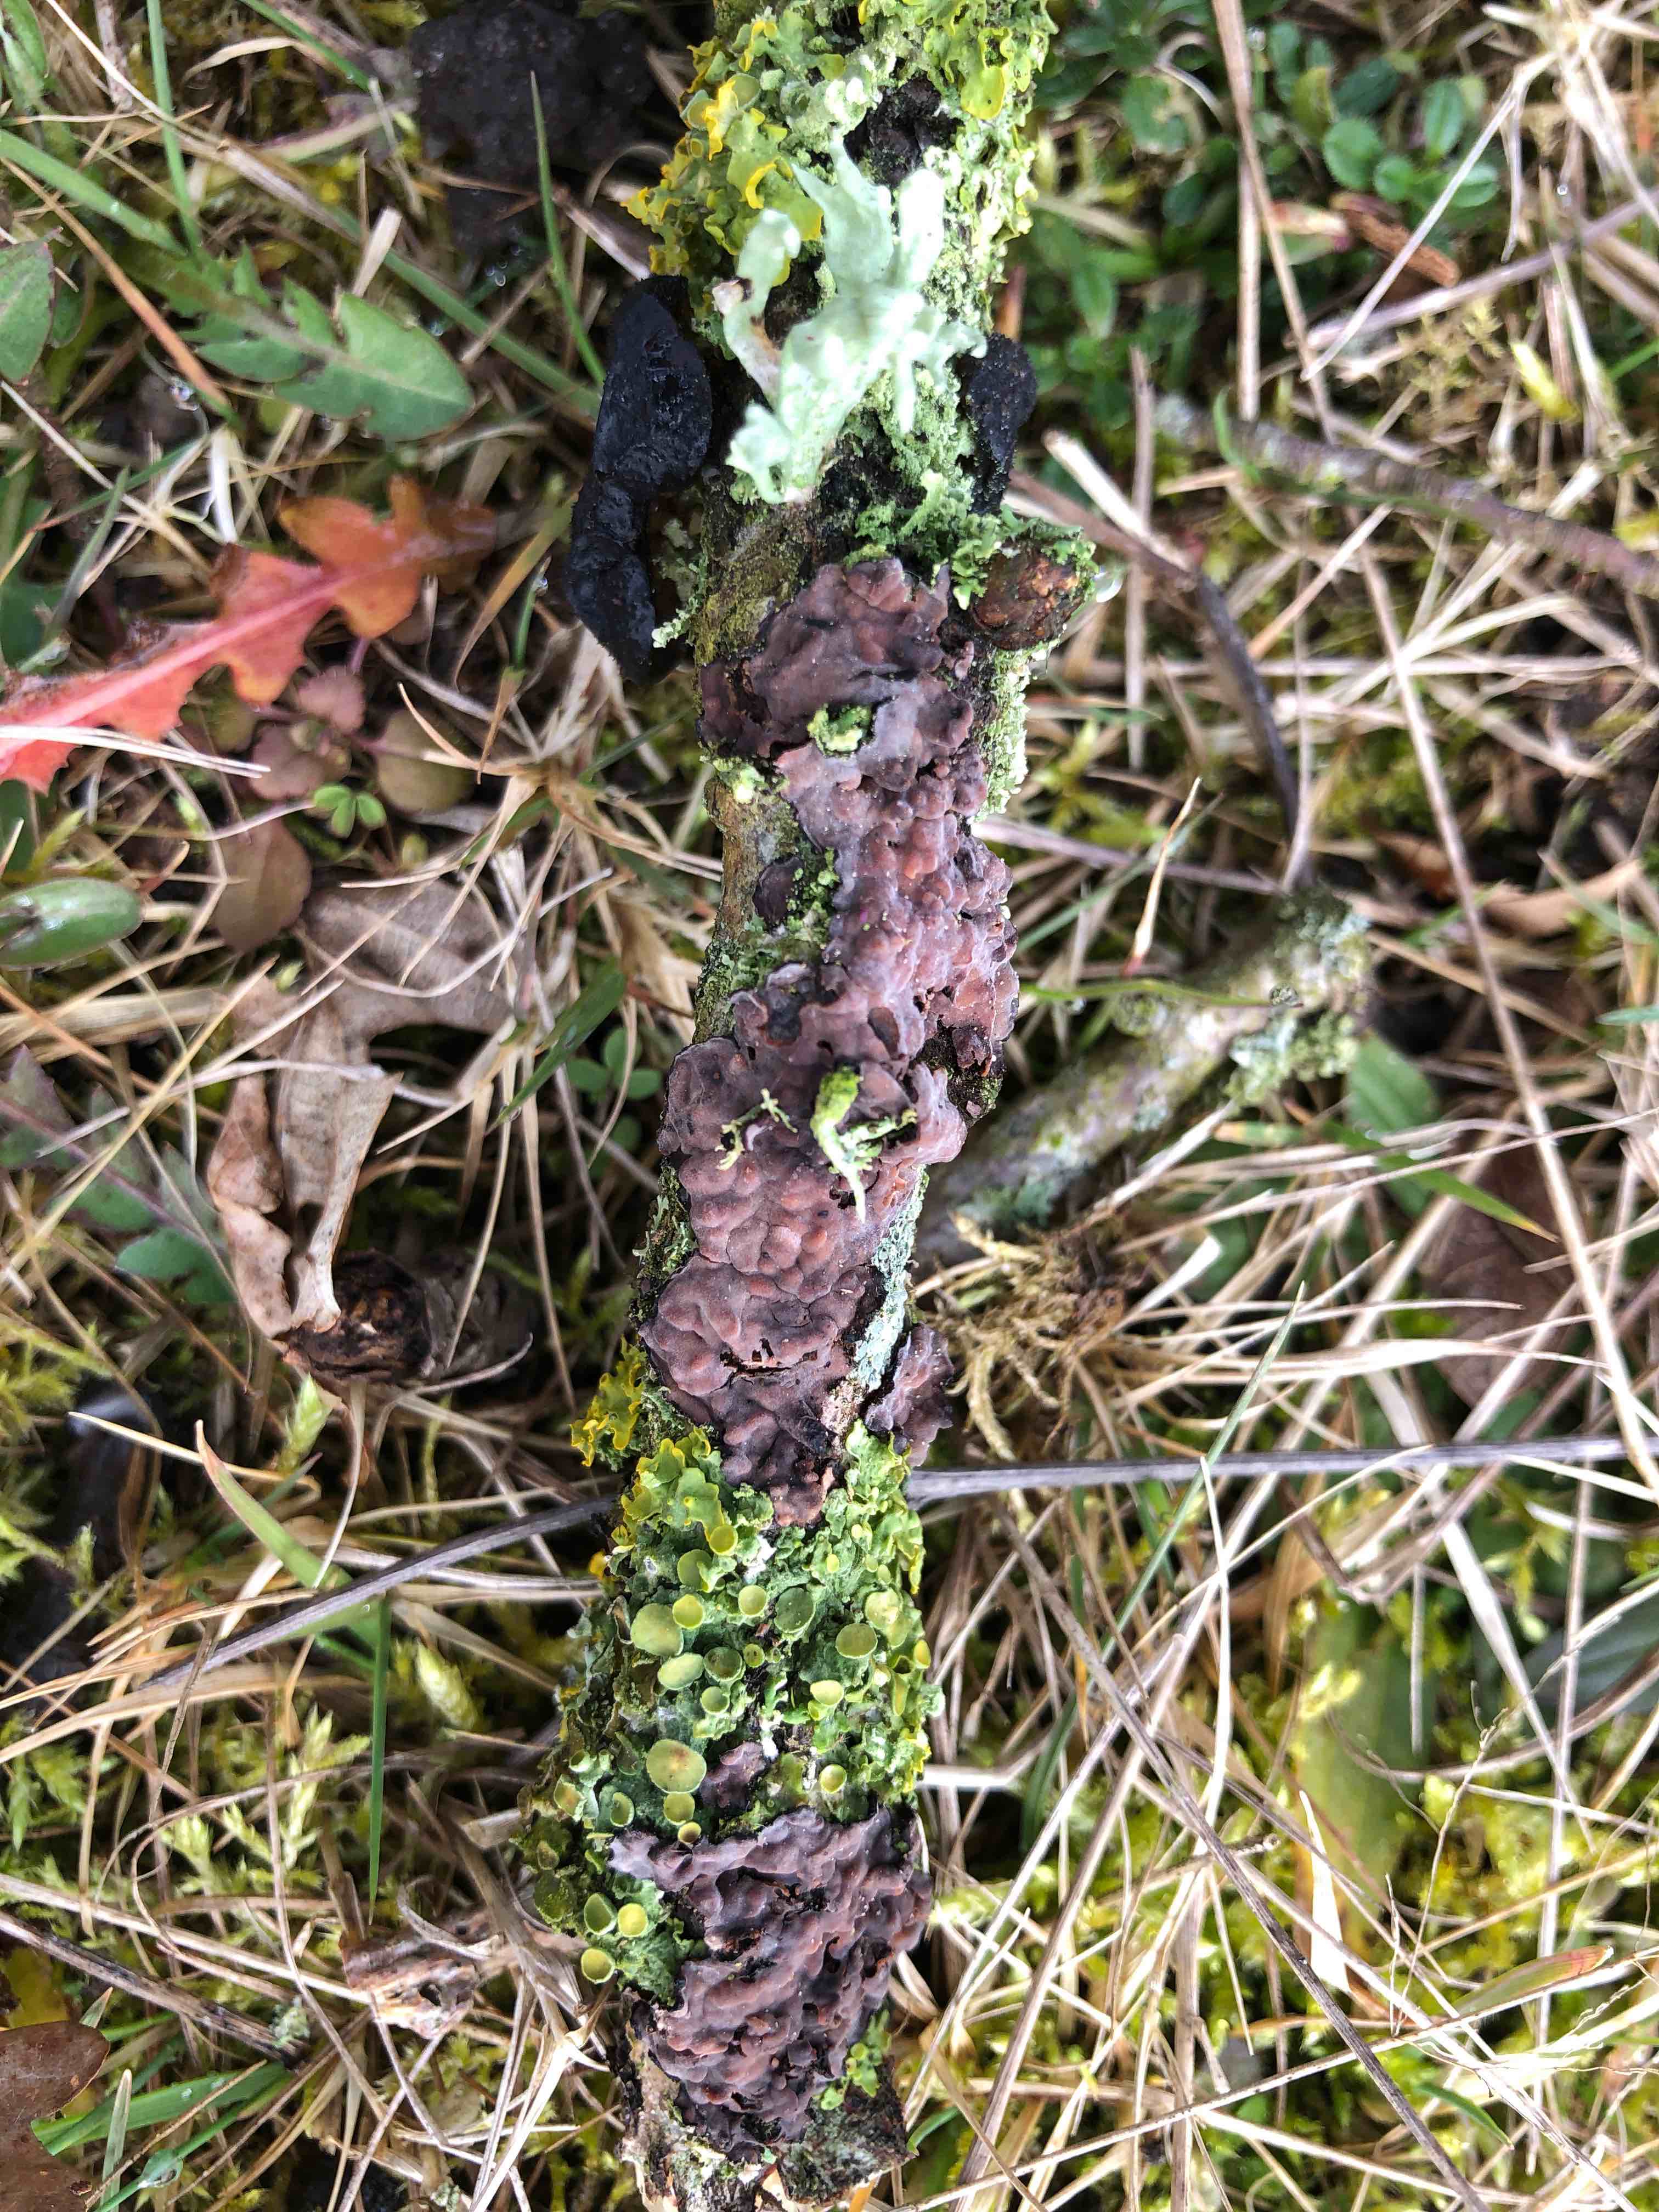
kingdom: Fungi
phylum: Basidiomycota
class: Agaricomycetes
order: Russulales
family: Peniophoraceae
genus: Peniophora
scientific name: Peniophora quercina
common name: ege-voksskind
